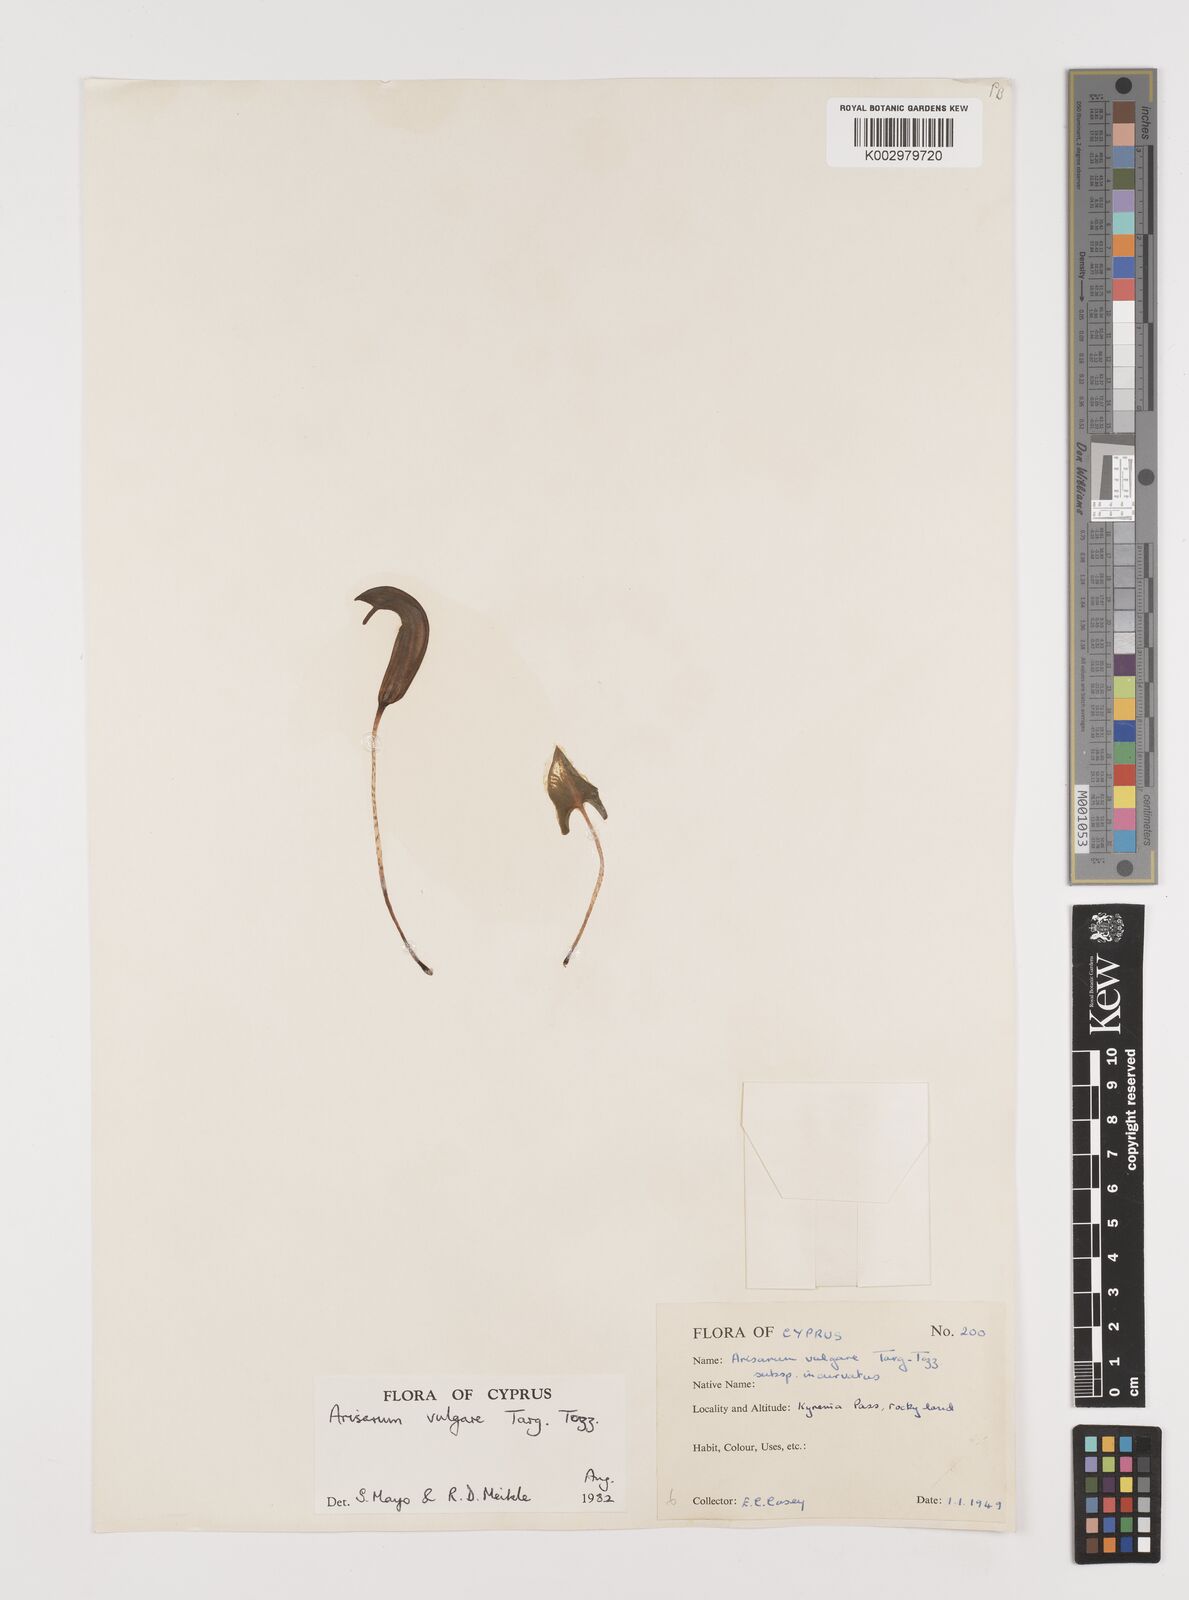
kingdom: Plantae
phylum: Tracheophyta
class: Liliopsida
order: Alismatales
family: Araceae
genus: Arisarum
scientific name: Arisarum vulgare
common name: Common arisarum
